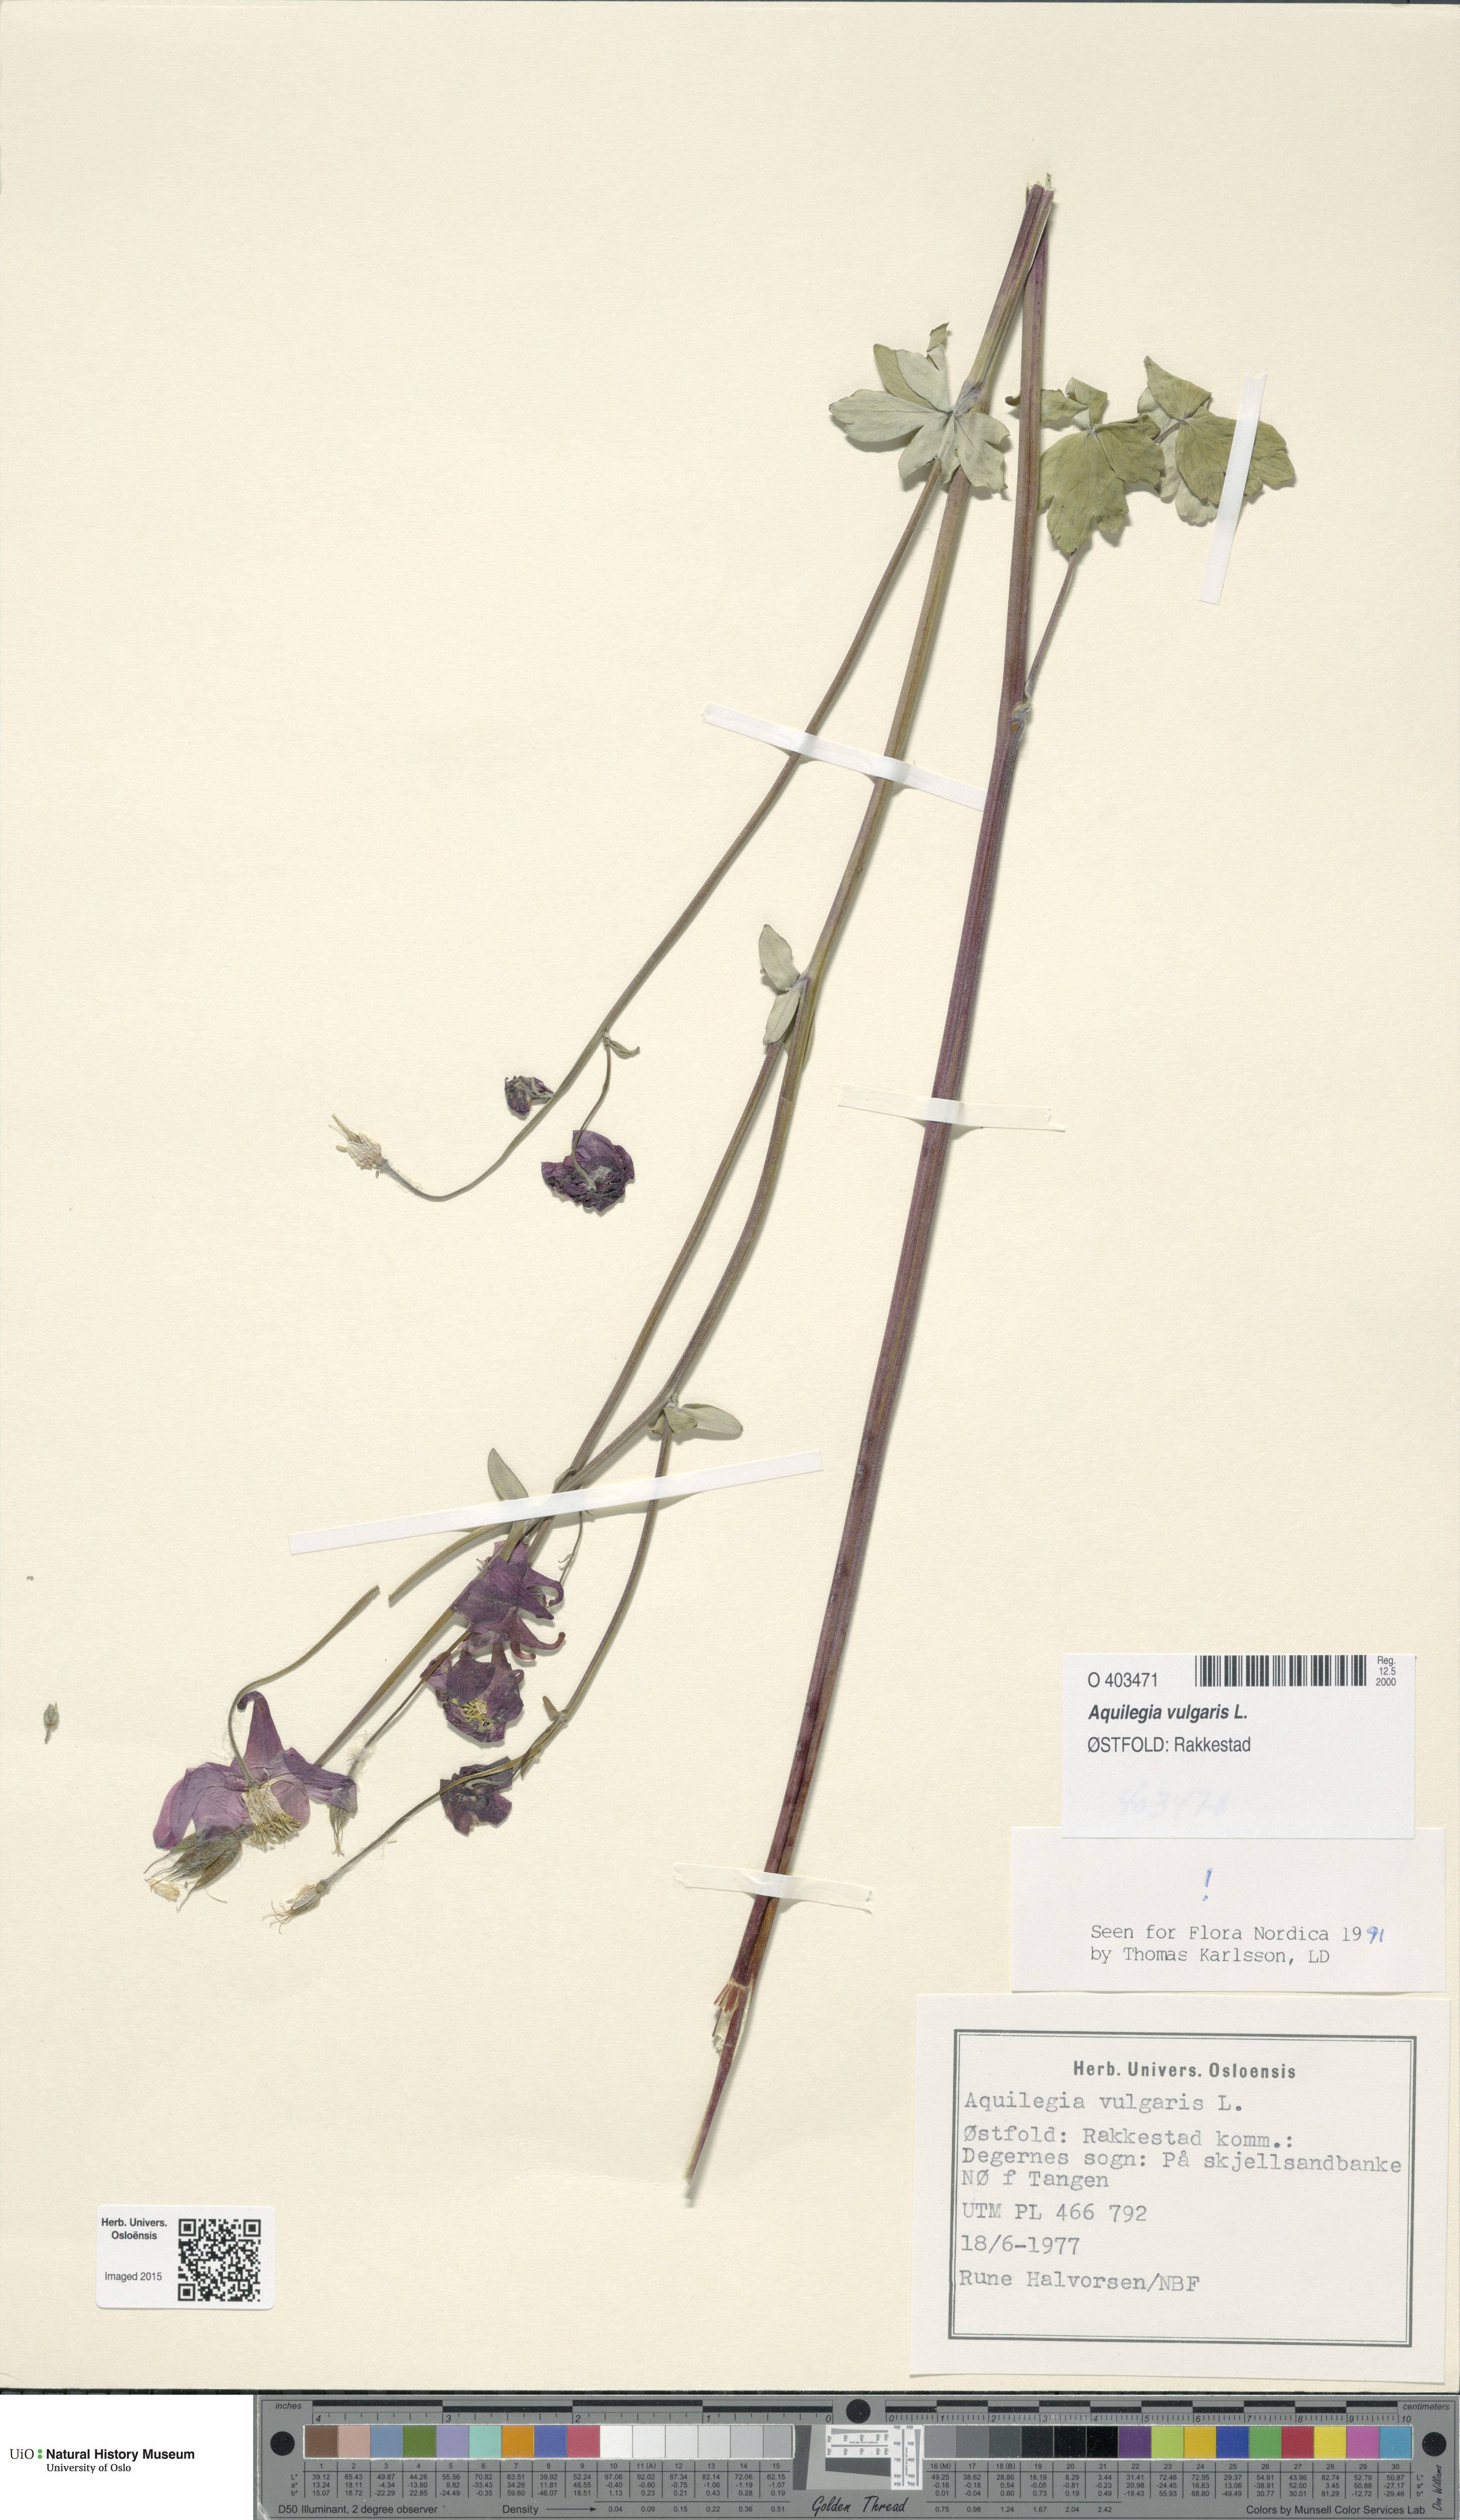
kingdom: Plantae
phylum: Tracheophyta
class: Magnoliopsida
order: Ranunculales
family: Ranunculaceae
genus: Aquilegia
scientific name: Aquilegia vulgaris
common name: Columbine
